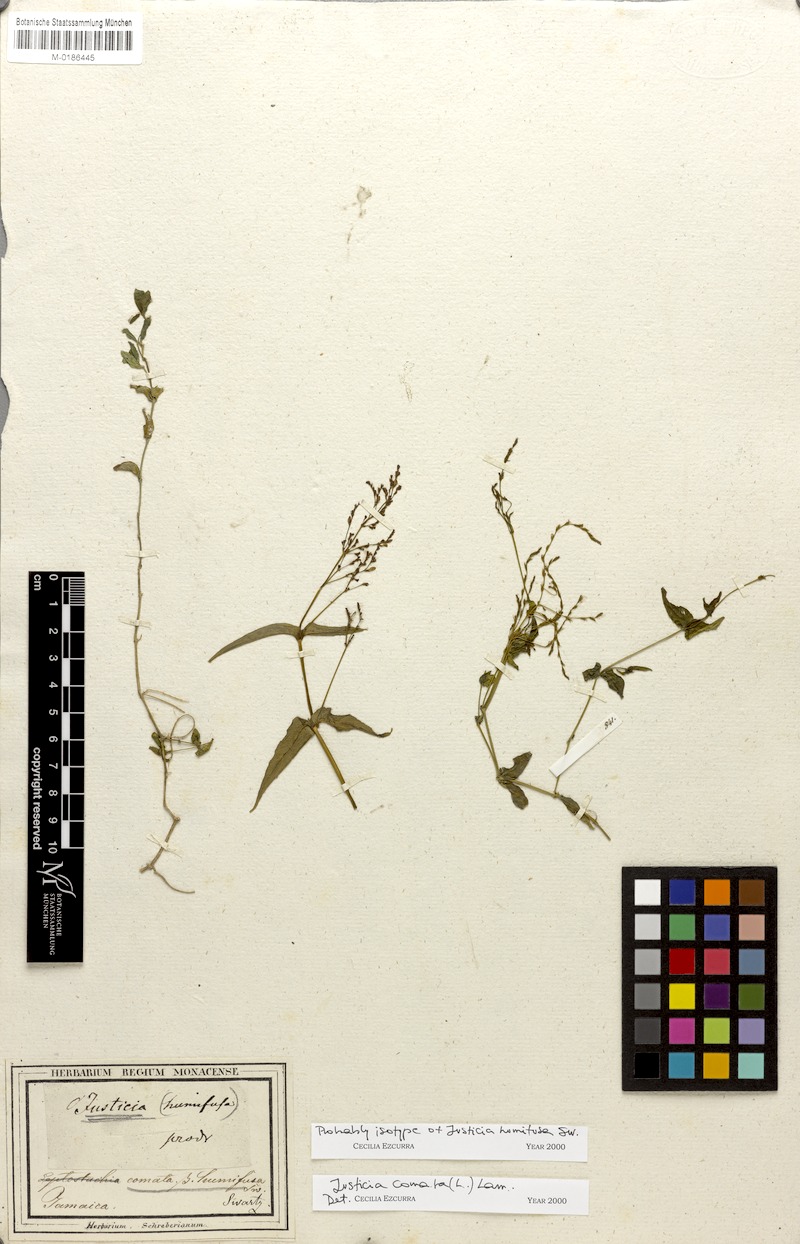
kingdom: Plantae
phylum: Tracheophyta
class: Magnoliopsida
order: Lamiales
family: Acanthaceae
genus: Dianthera
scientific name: Dianthera comata
